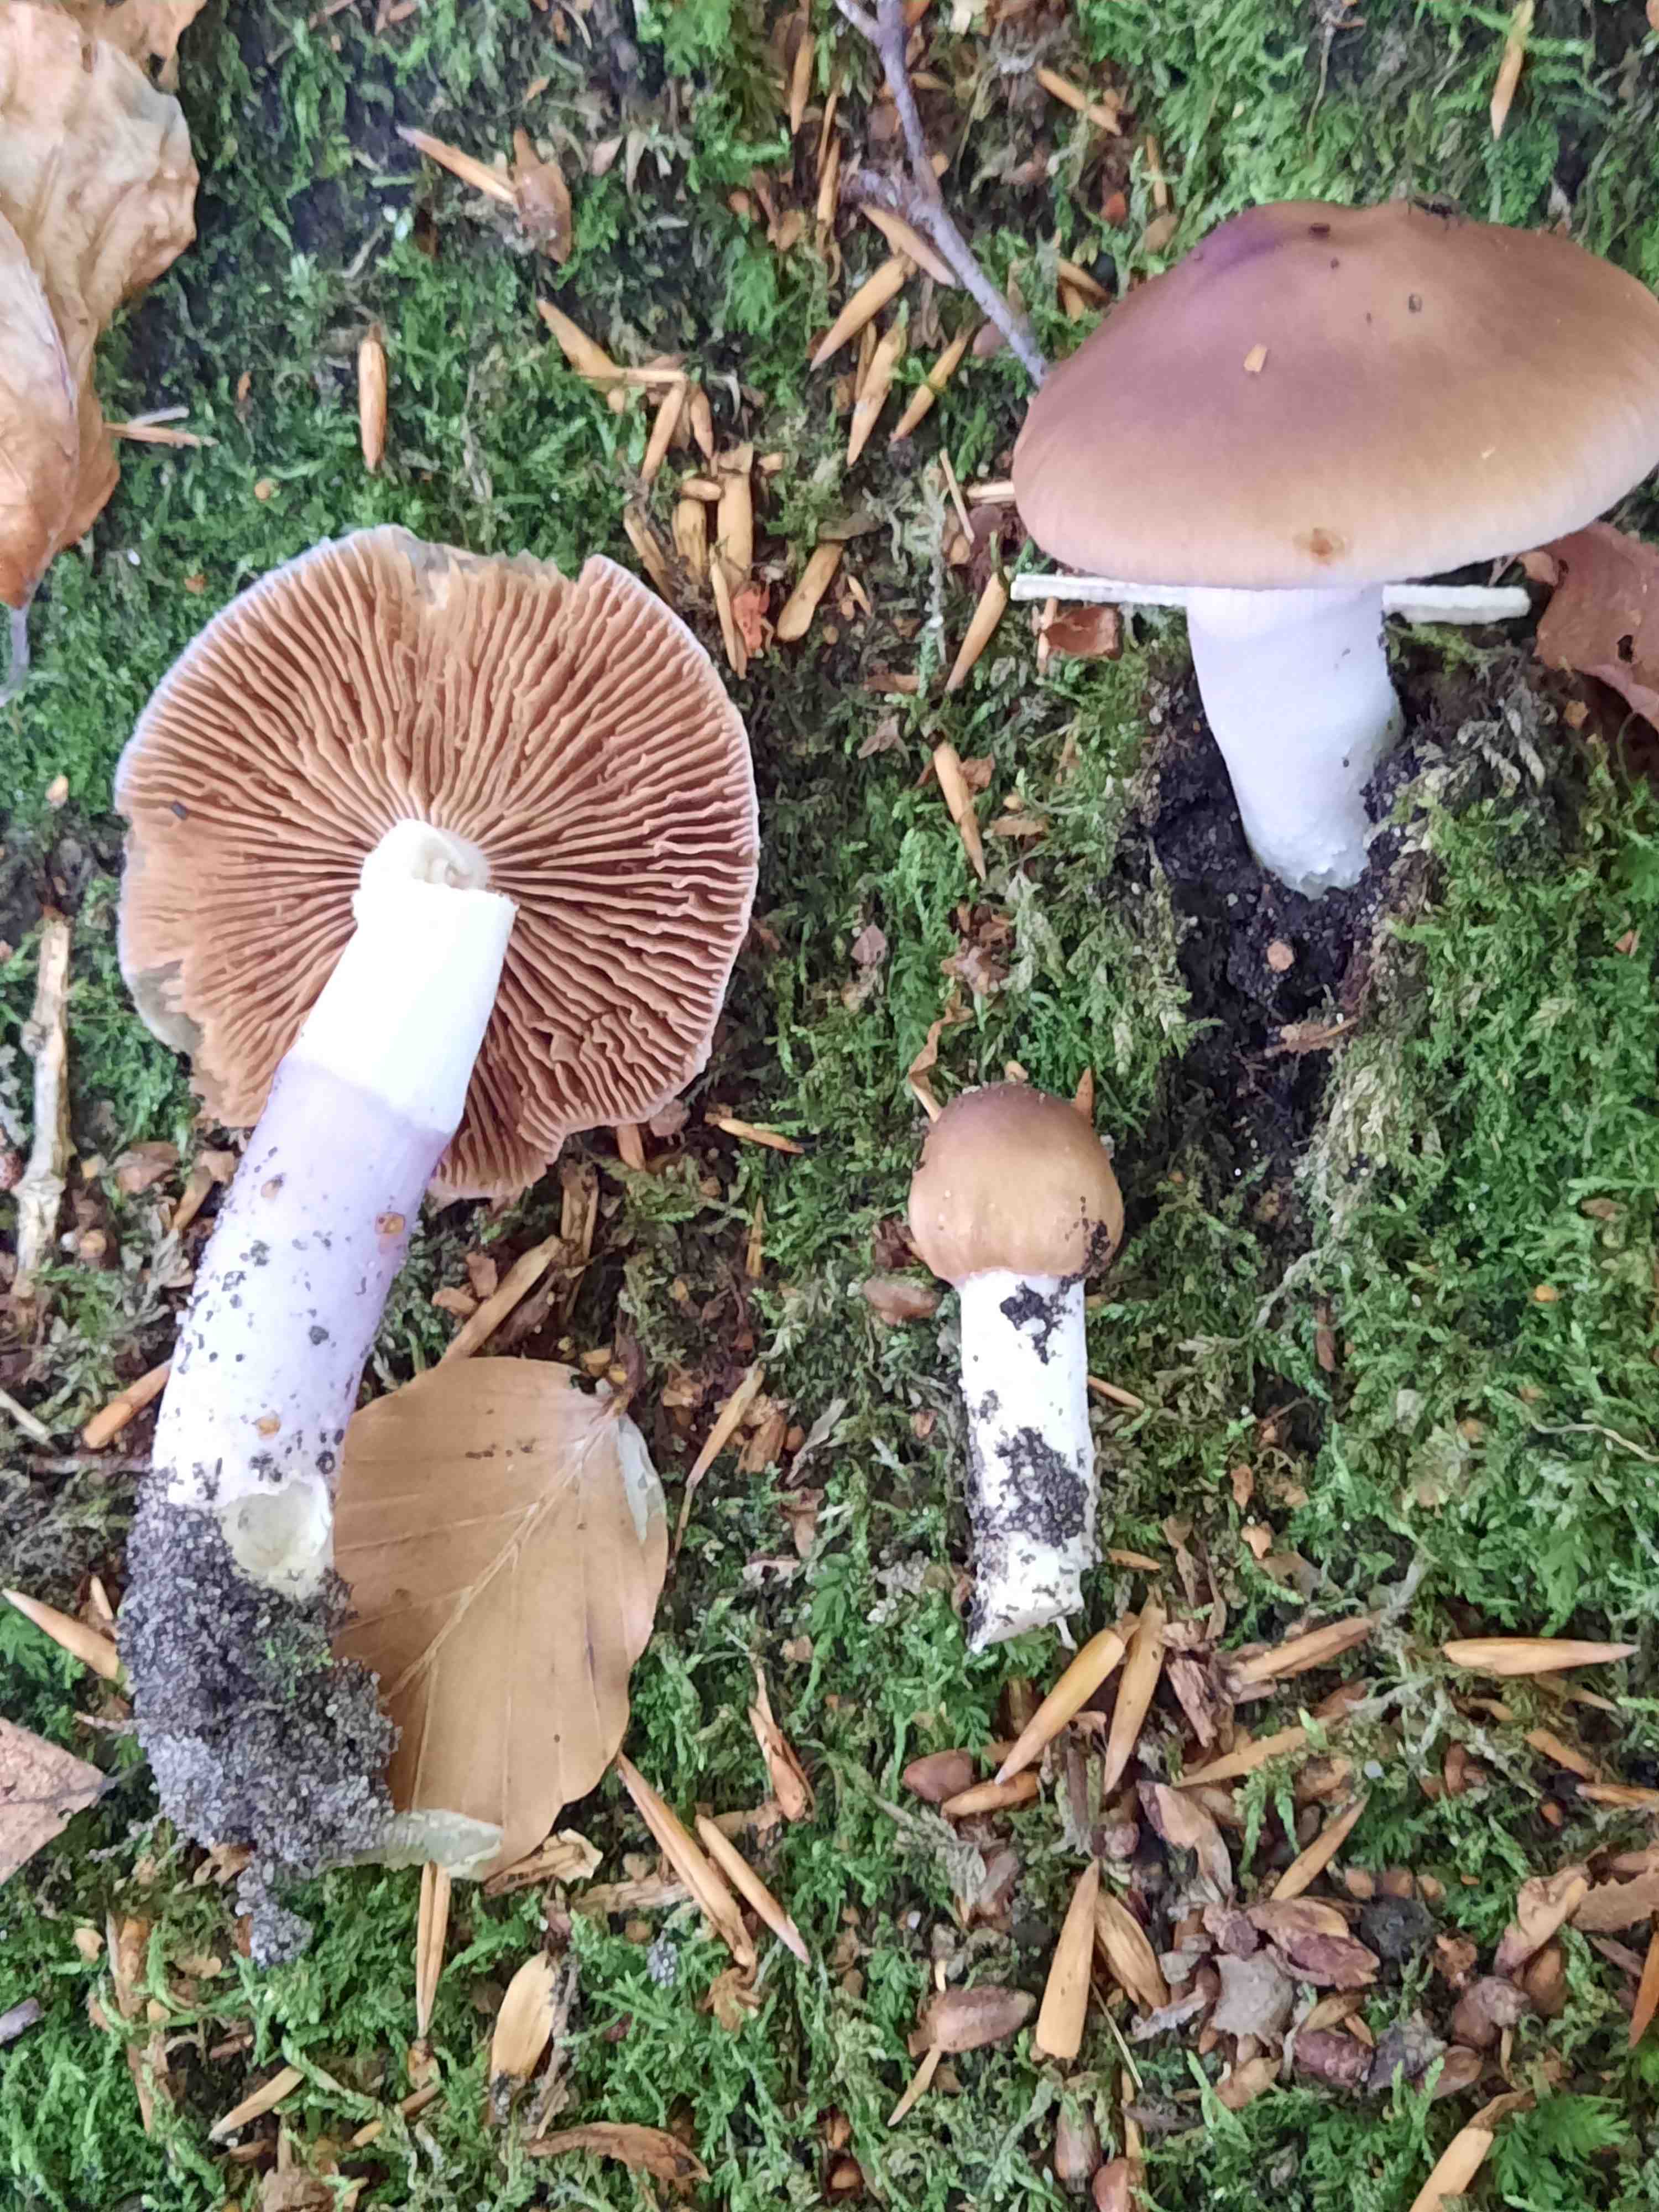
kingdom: Fungi
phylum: Basidiomycota
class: Agaricomycetes
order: Agaricales
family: Cortinariaceae
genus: Cortinarius
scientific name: Cortinarius elatior
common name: høj slørhat
